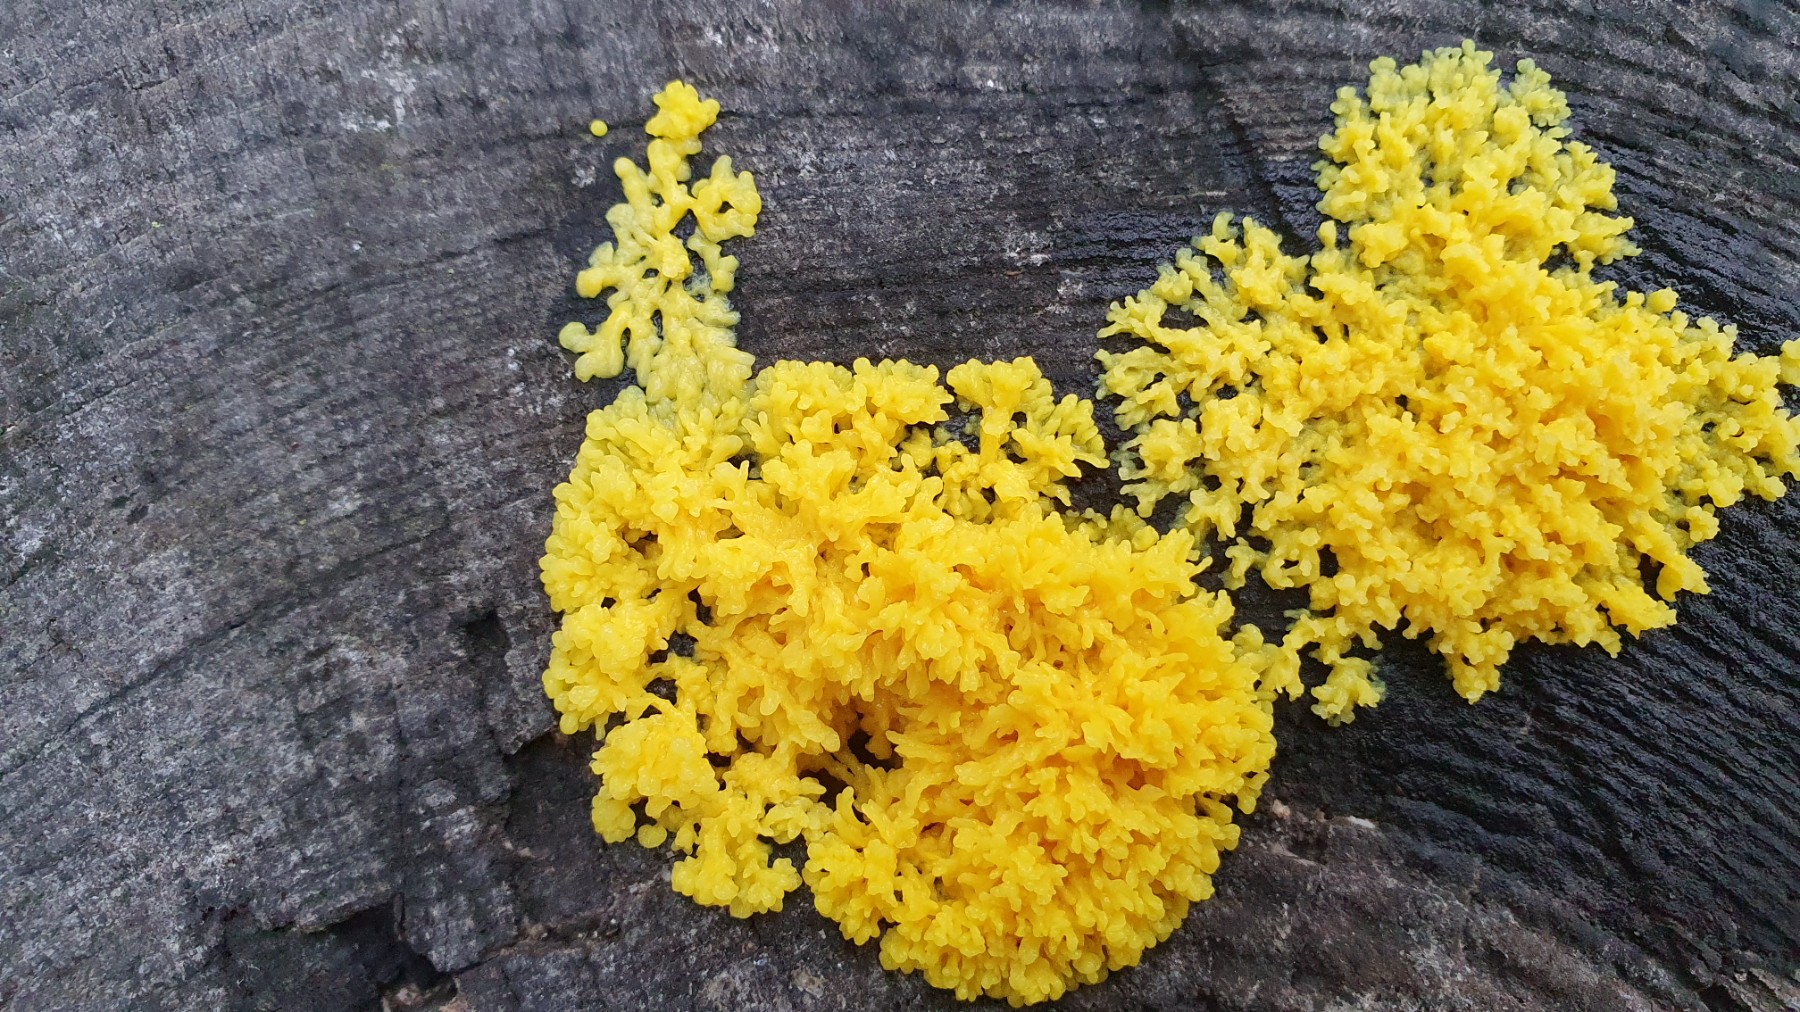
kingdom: Protozoa
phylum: Mycetozoa
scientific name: Mycetozoa
